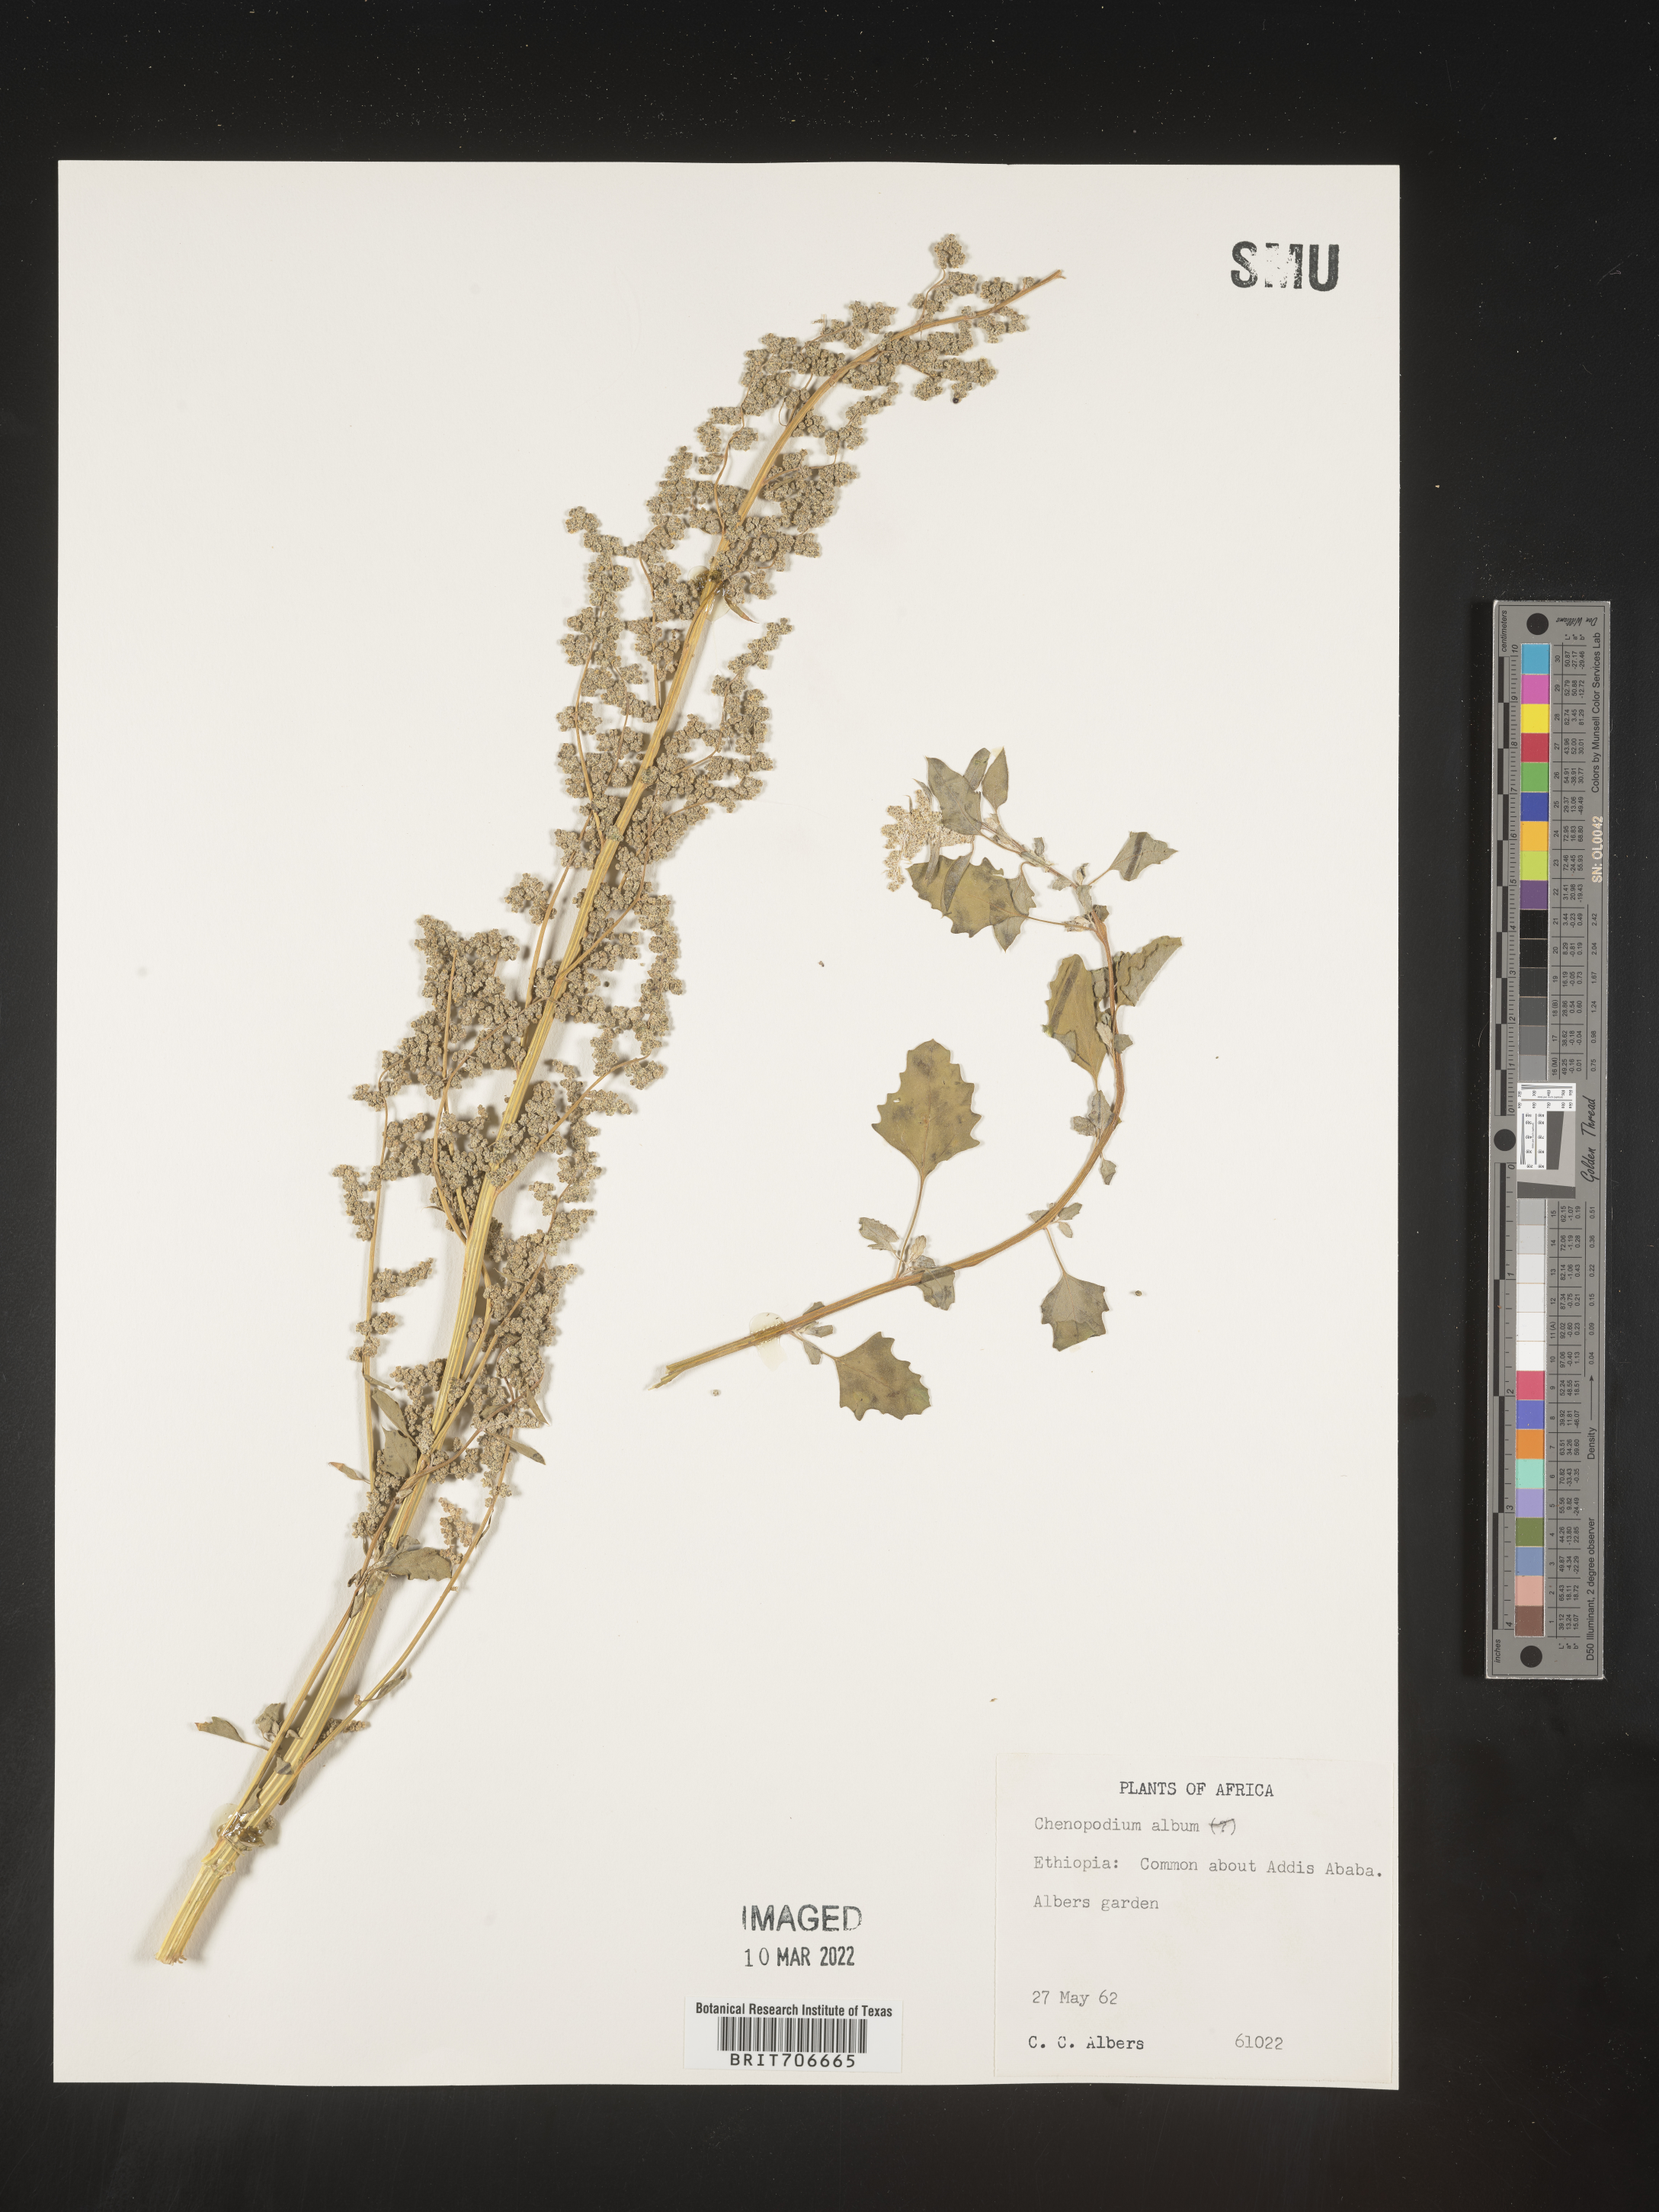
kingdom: Plantae
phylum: Tracheophyta
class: Magnoliopsida
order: Caryophyllales
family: Amaranthaceae
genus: Chenopodium
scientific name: Chenopodium
